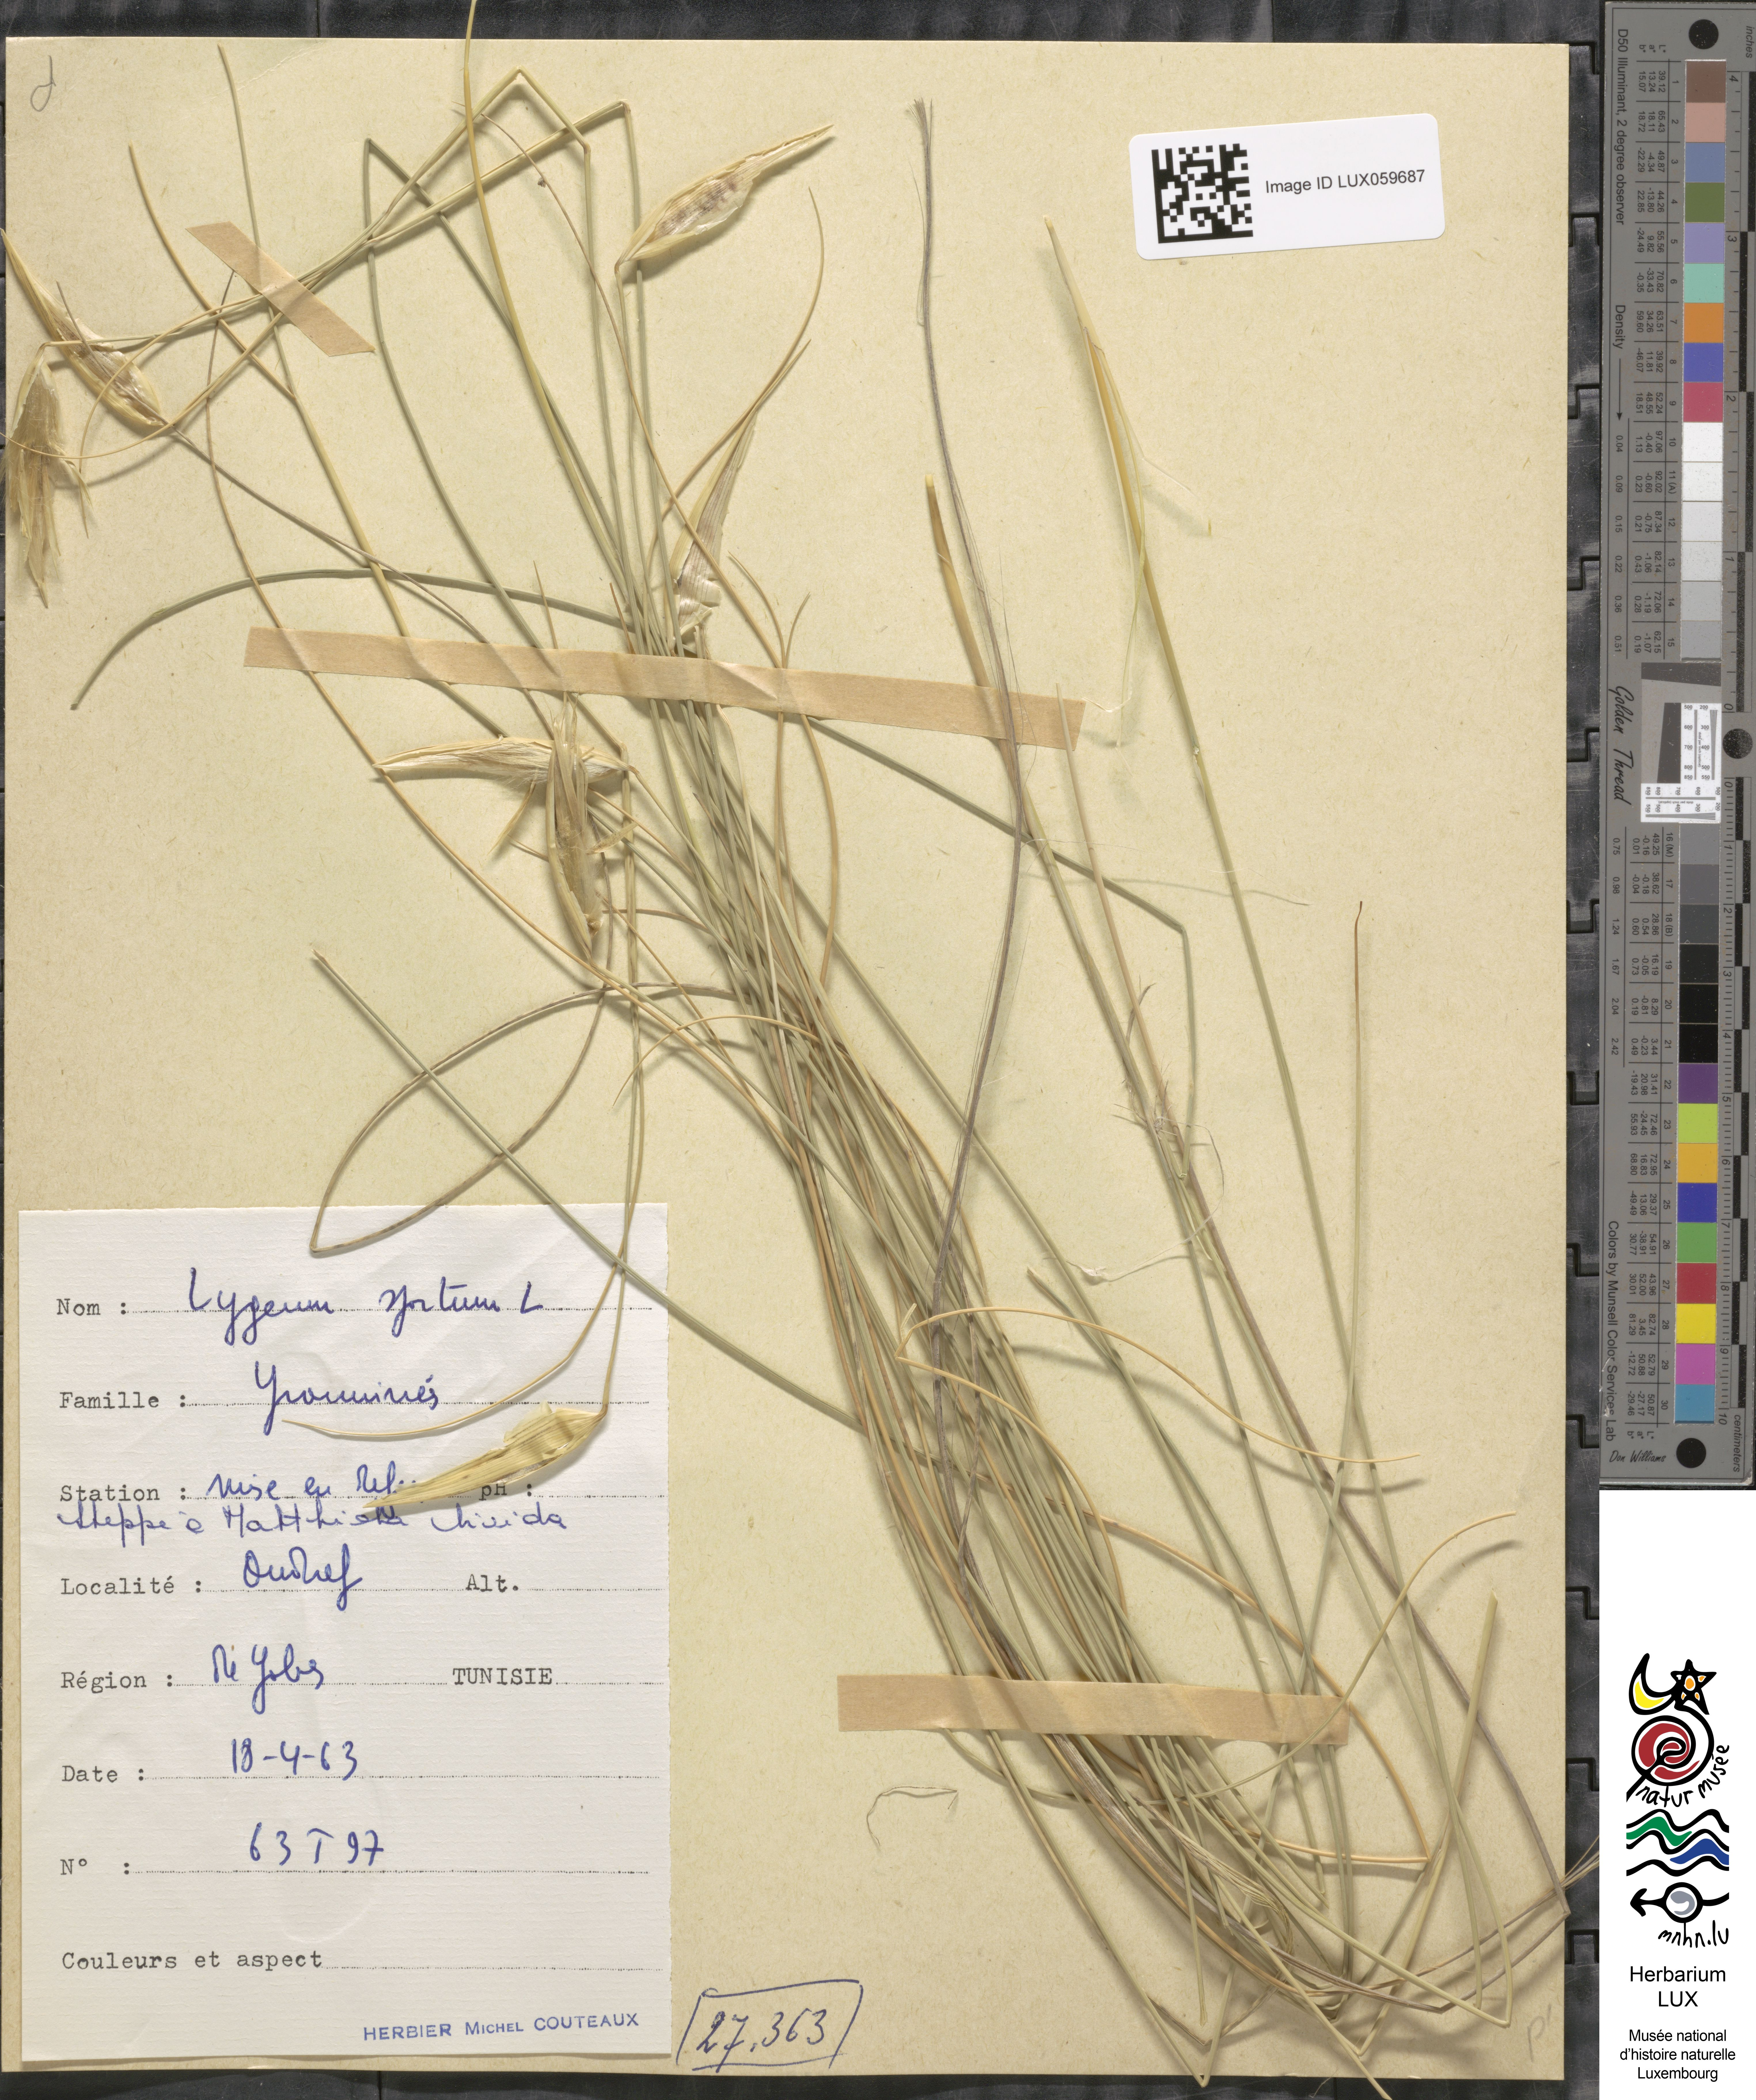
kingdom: Plantae
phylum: Tracheophyta
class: Liliopsida
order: Poales
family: Poaceae
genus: Lygeum
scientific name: Lygeum spartum
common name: Albardine
